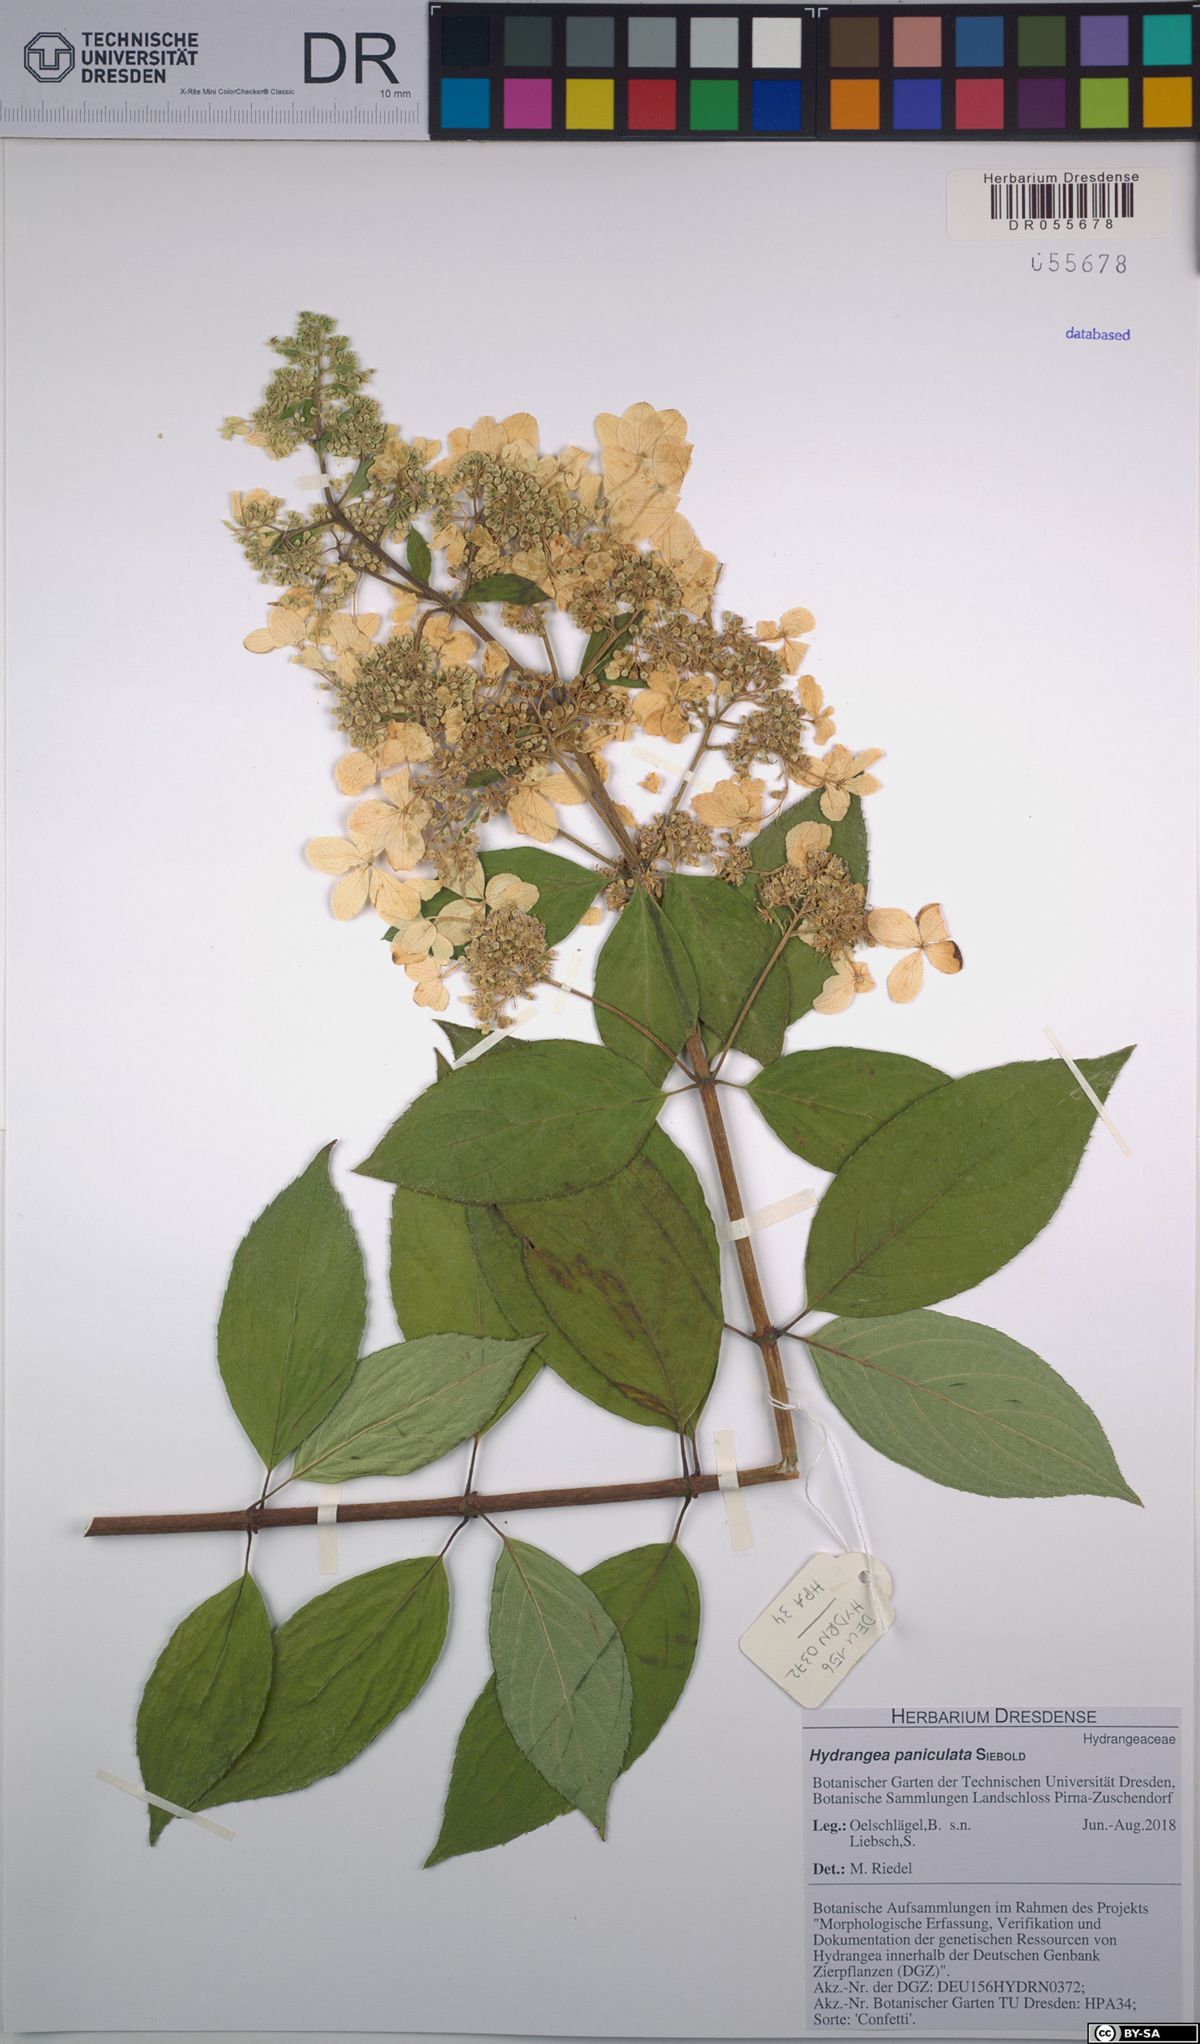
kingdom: Plantae
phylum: Tracheophyta
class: Magnoliopsida
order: Cornales
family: Hydrangeaceae
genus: Hydrangea
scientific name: Hydrangea paniculata
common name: Panicled hydrangea
